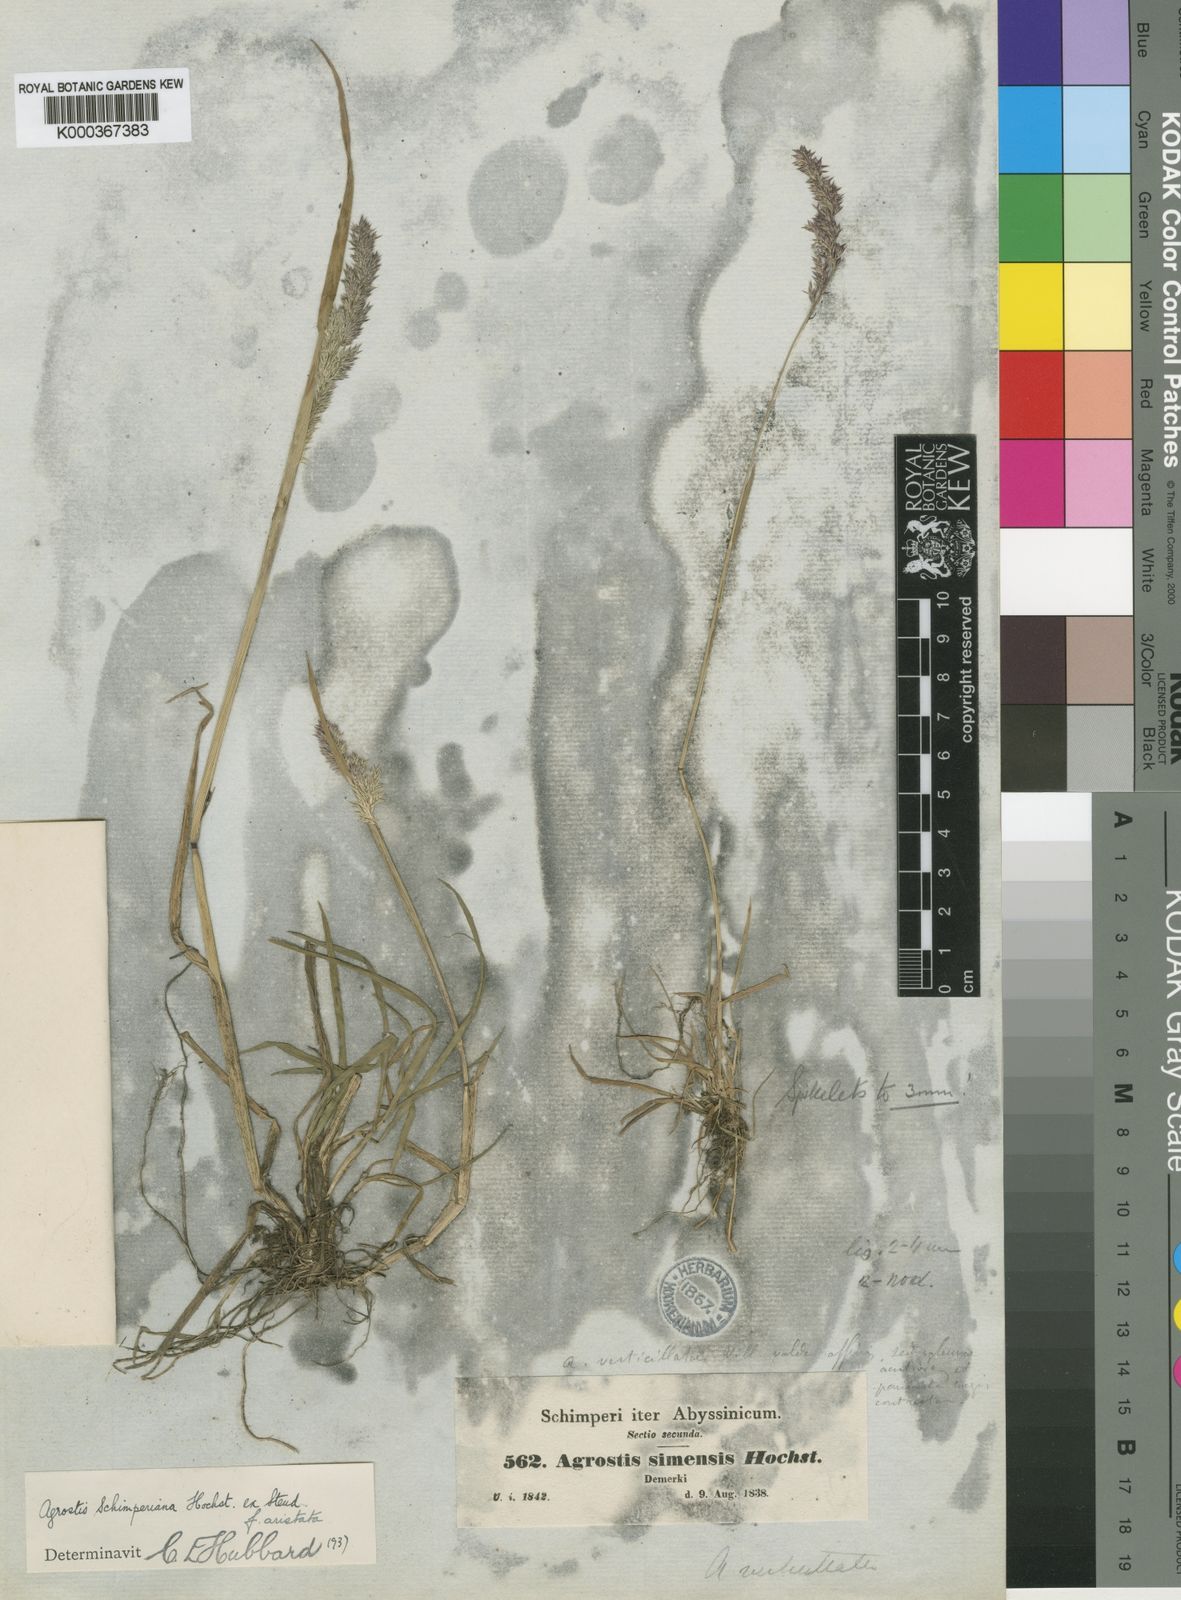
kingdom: Plantae
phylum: Tracheophyta
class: Liliopsida
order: Poales
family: Poaceae
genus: Polypogon
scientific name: Polypogon schimperianus
